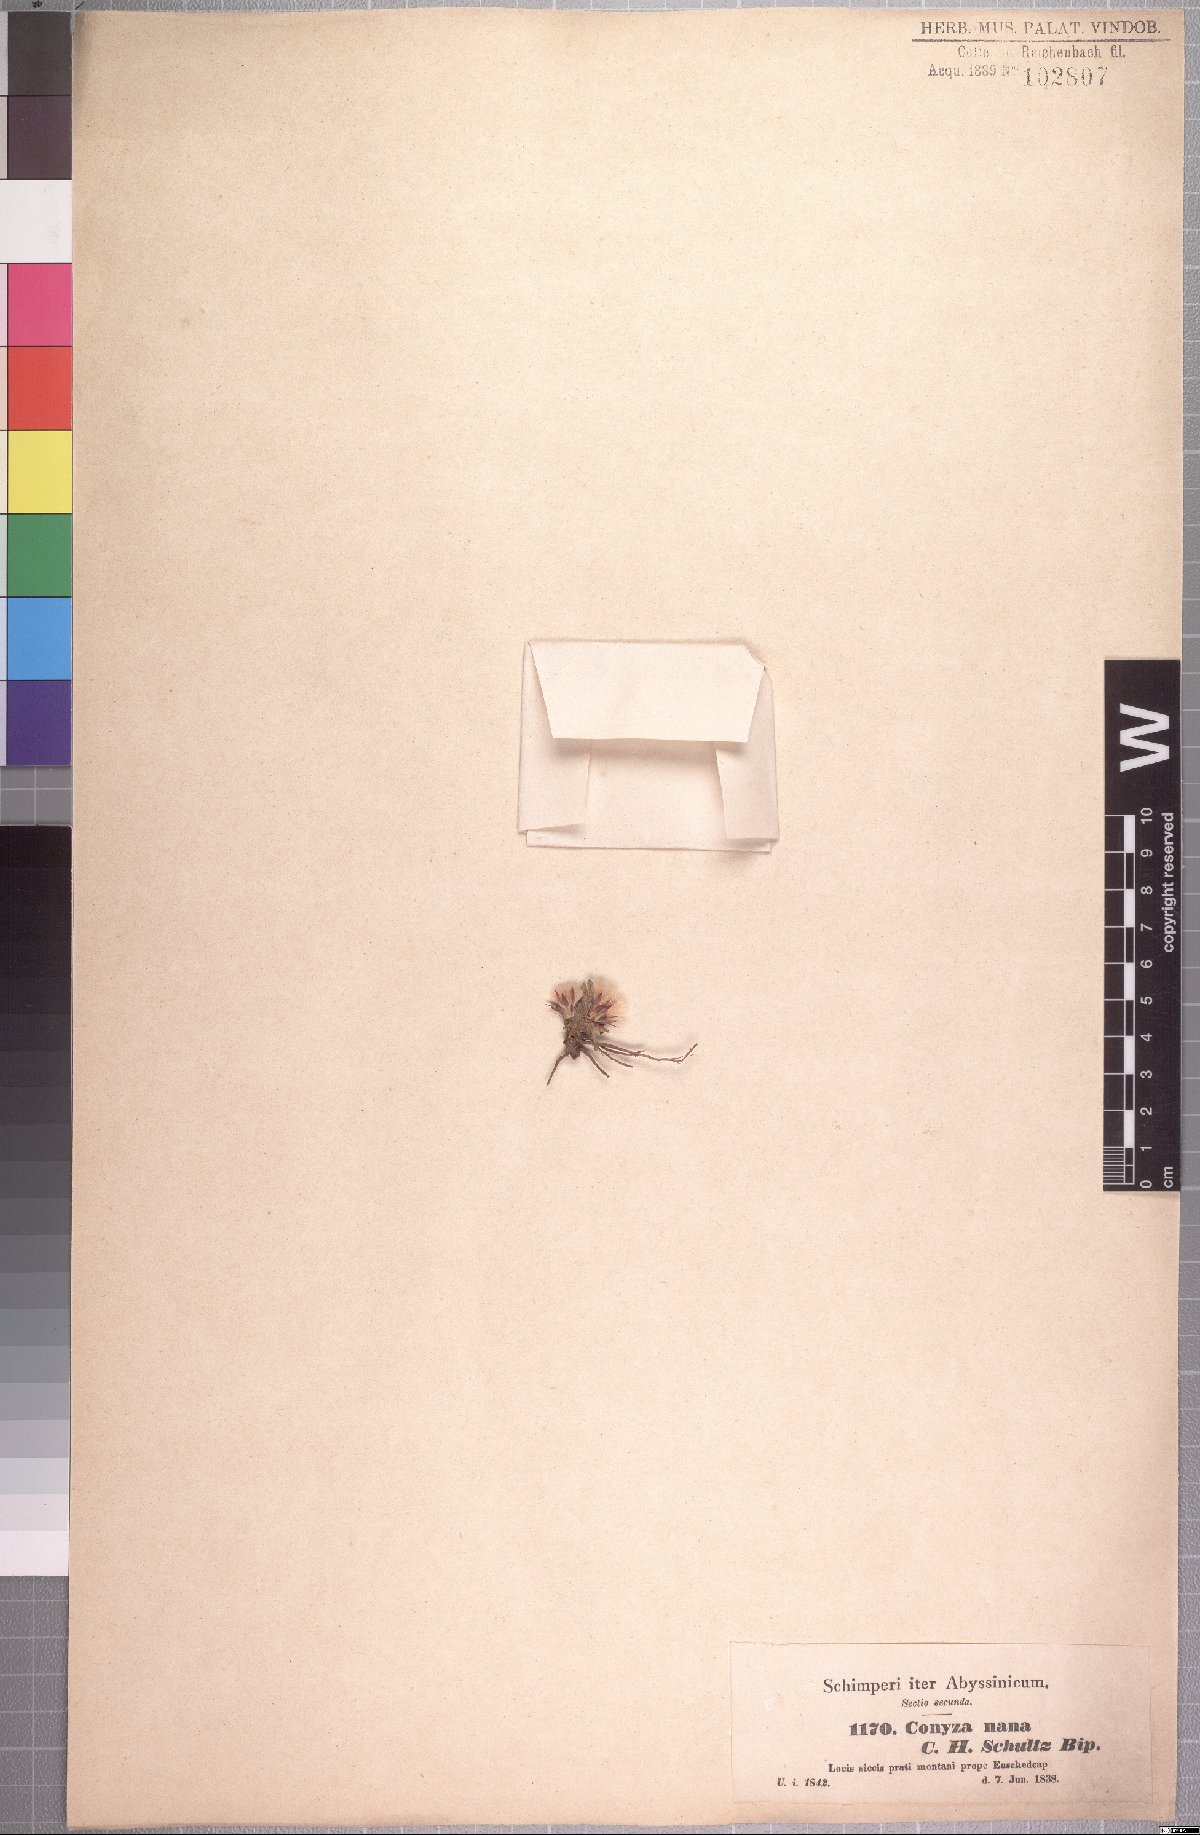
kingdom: Plantae
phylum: Tracheophyta
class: Magnoliopsida
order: Asterales
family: Asteraceae
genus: Conyza
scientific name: Conyza nana
